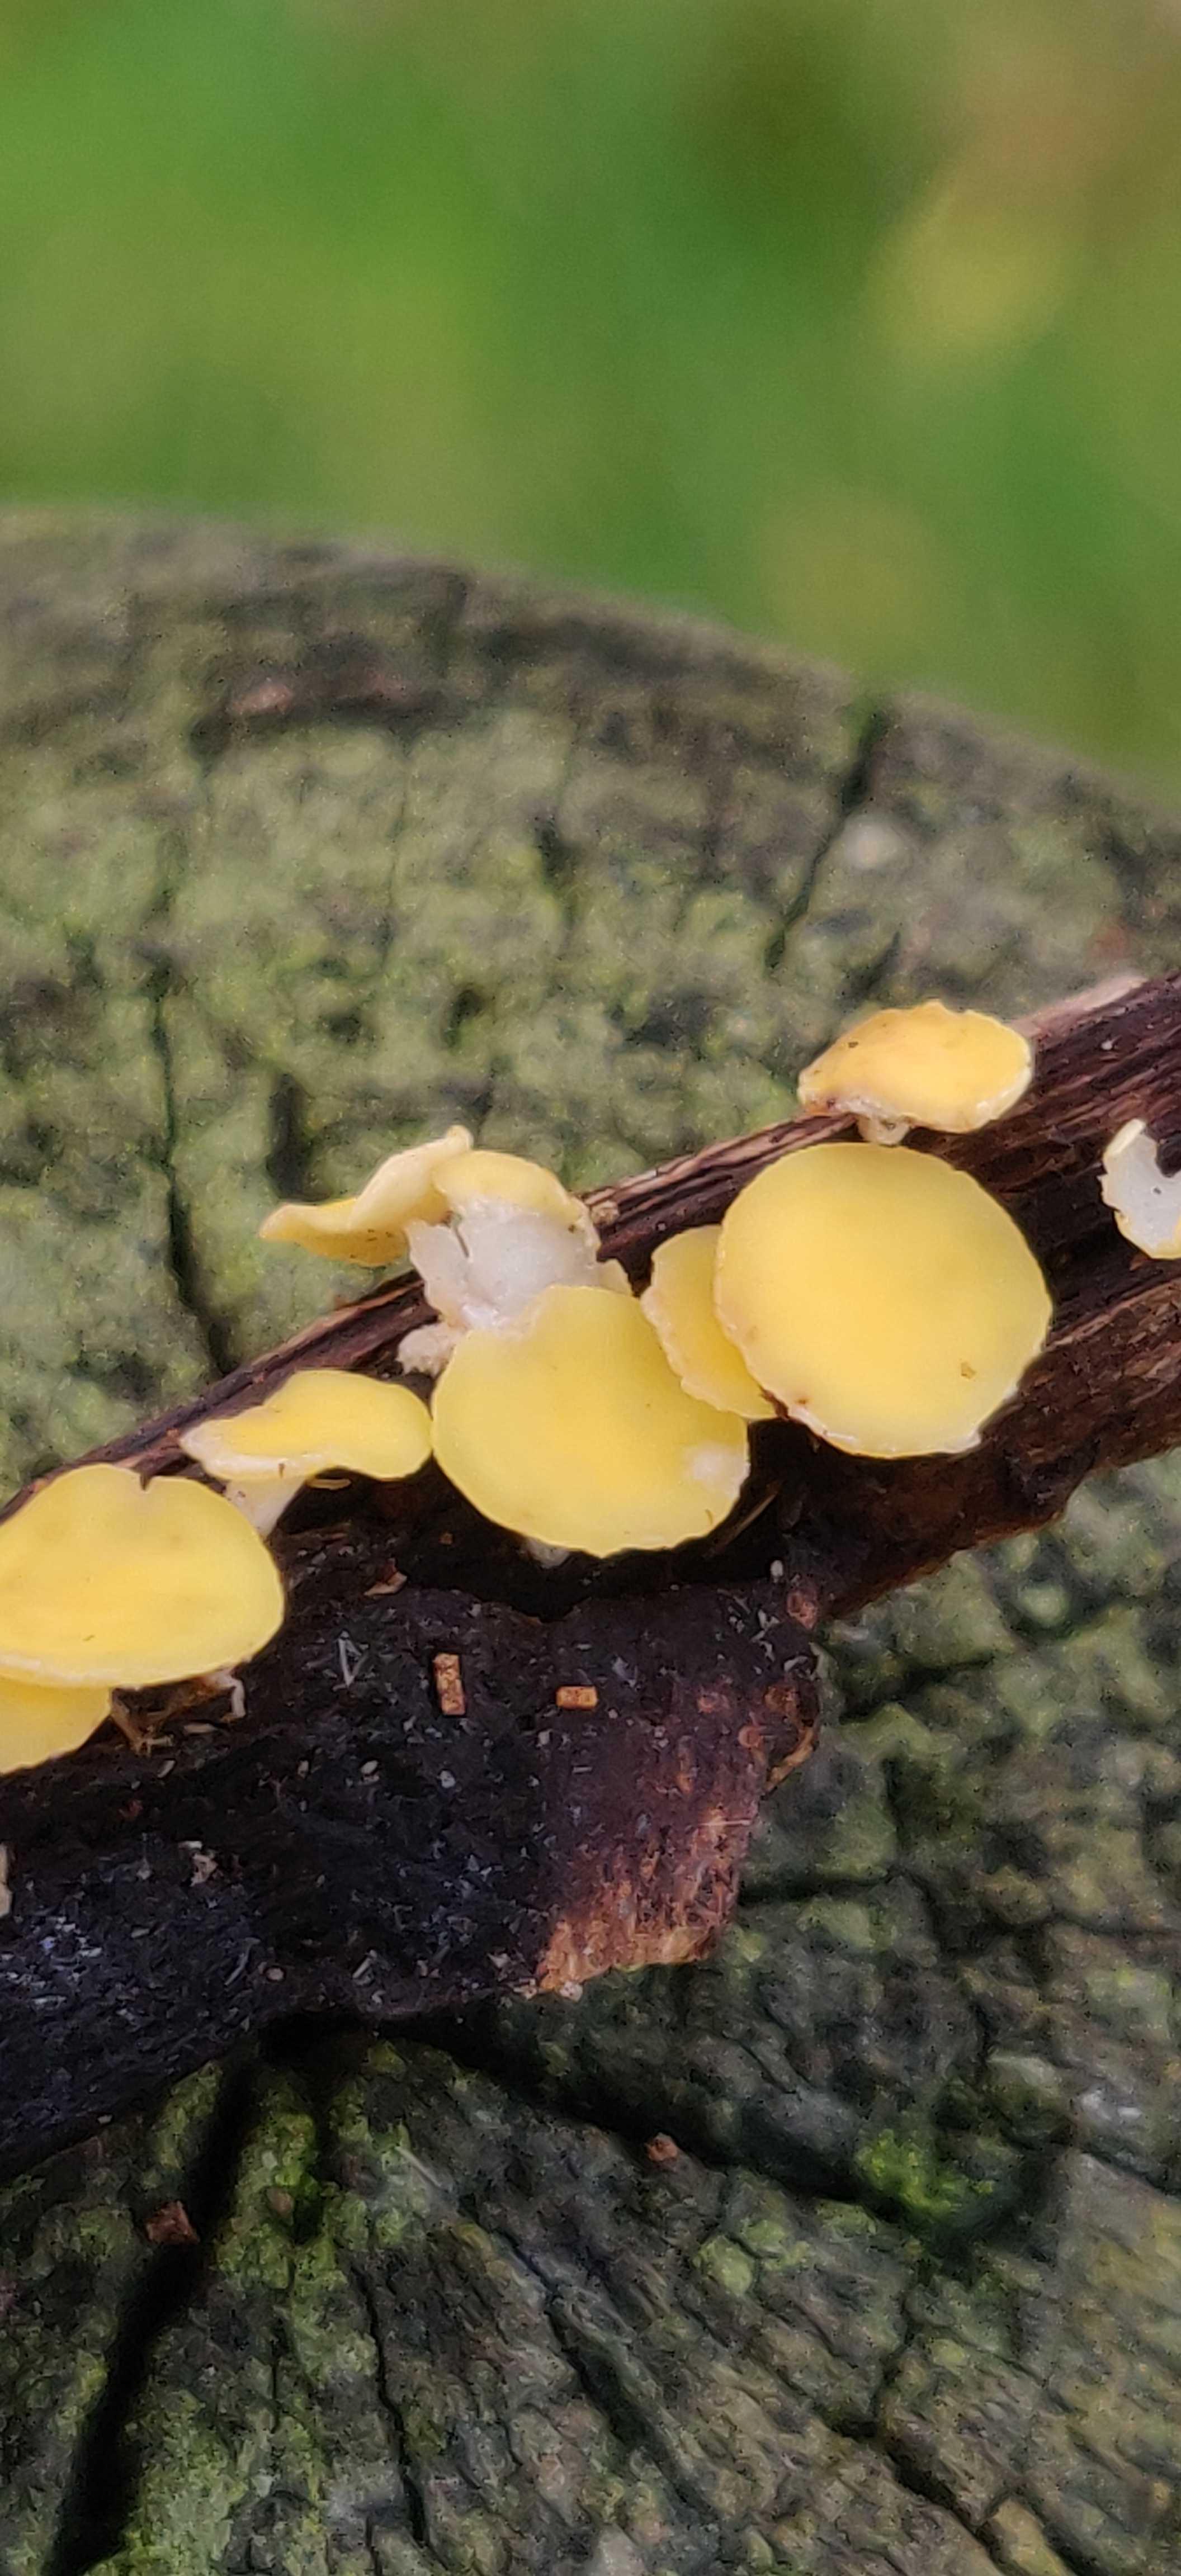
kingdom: Fungi
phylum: Ascomycota
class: Leotiomycetes
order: Helotiales
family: Helotiaceae
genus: Hymenoscyphus
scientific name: Hymenoscyphus
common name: stilkskive
